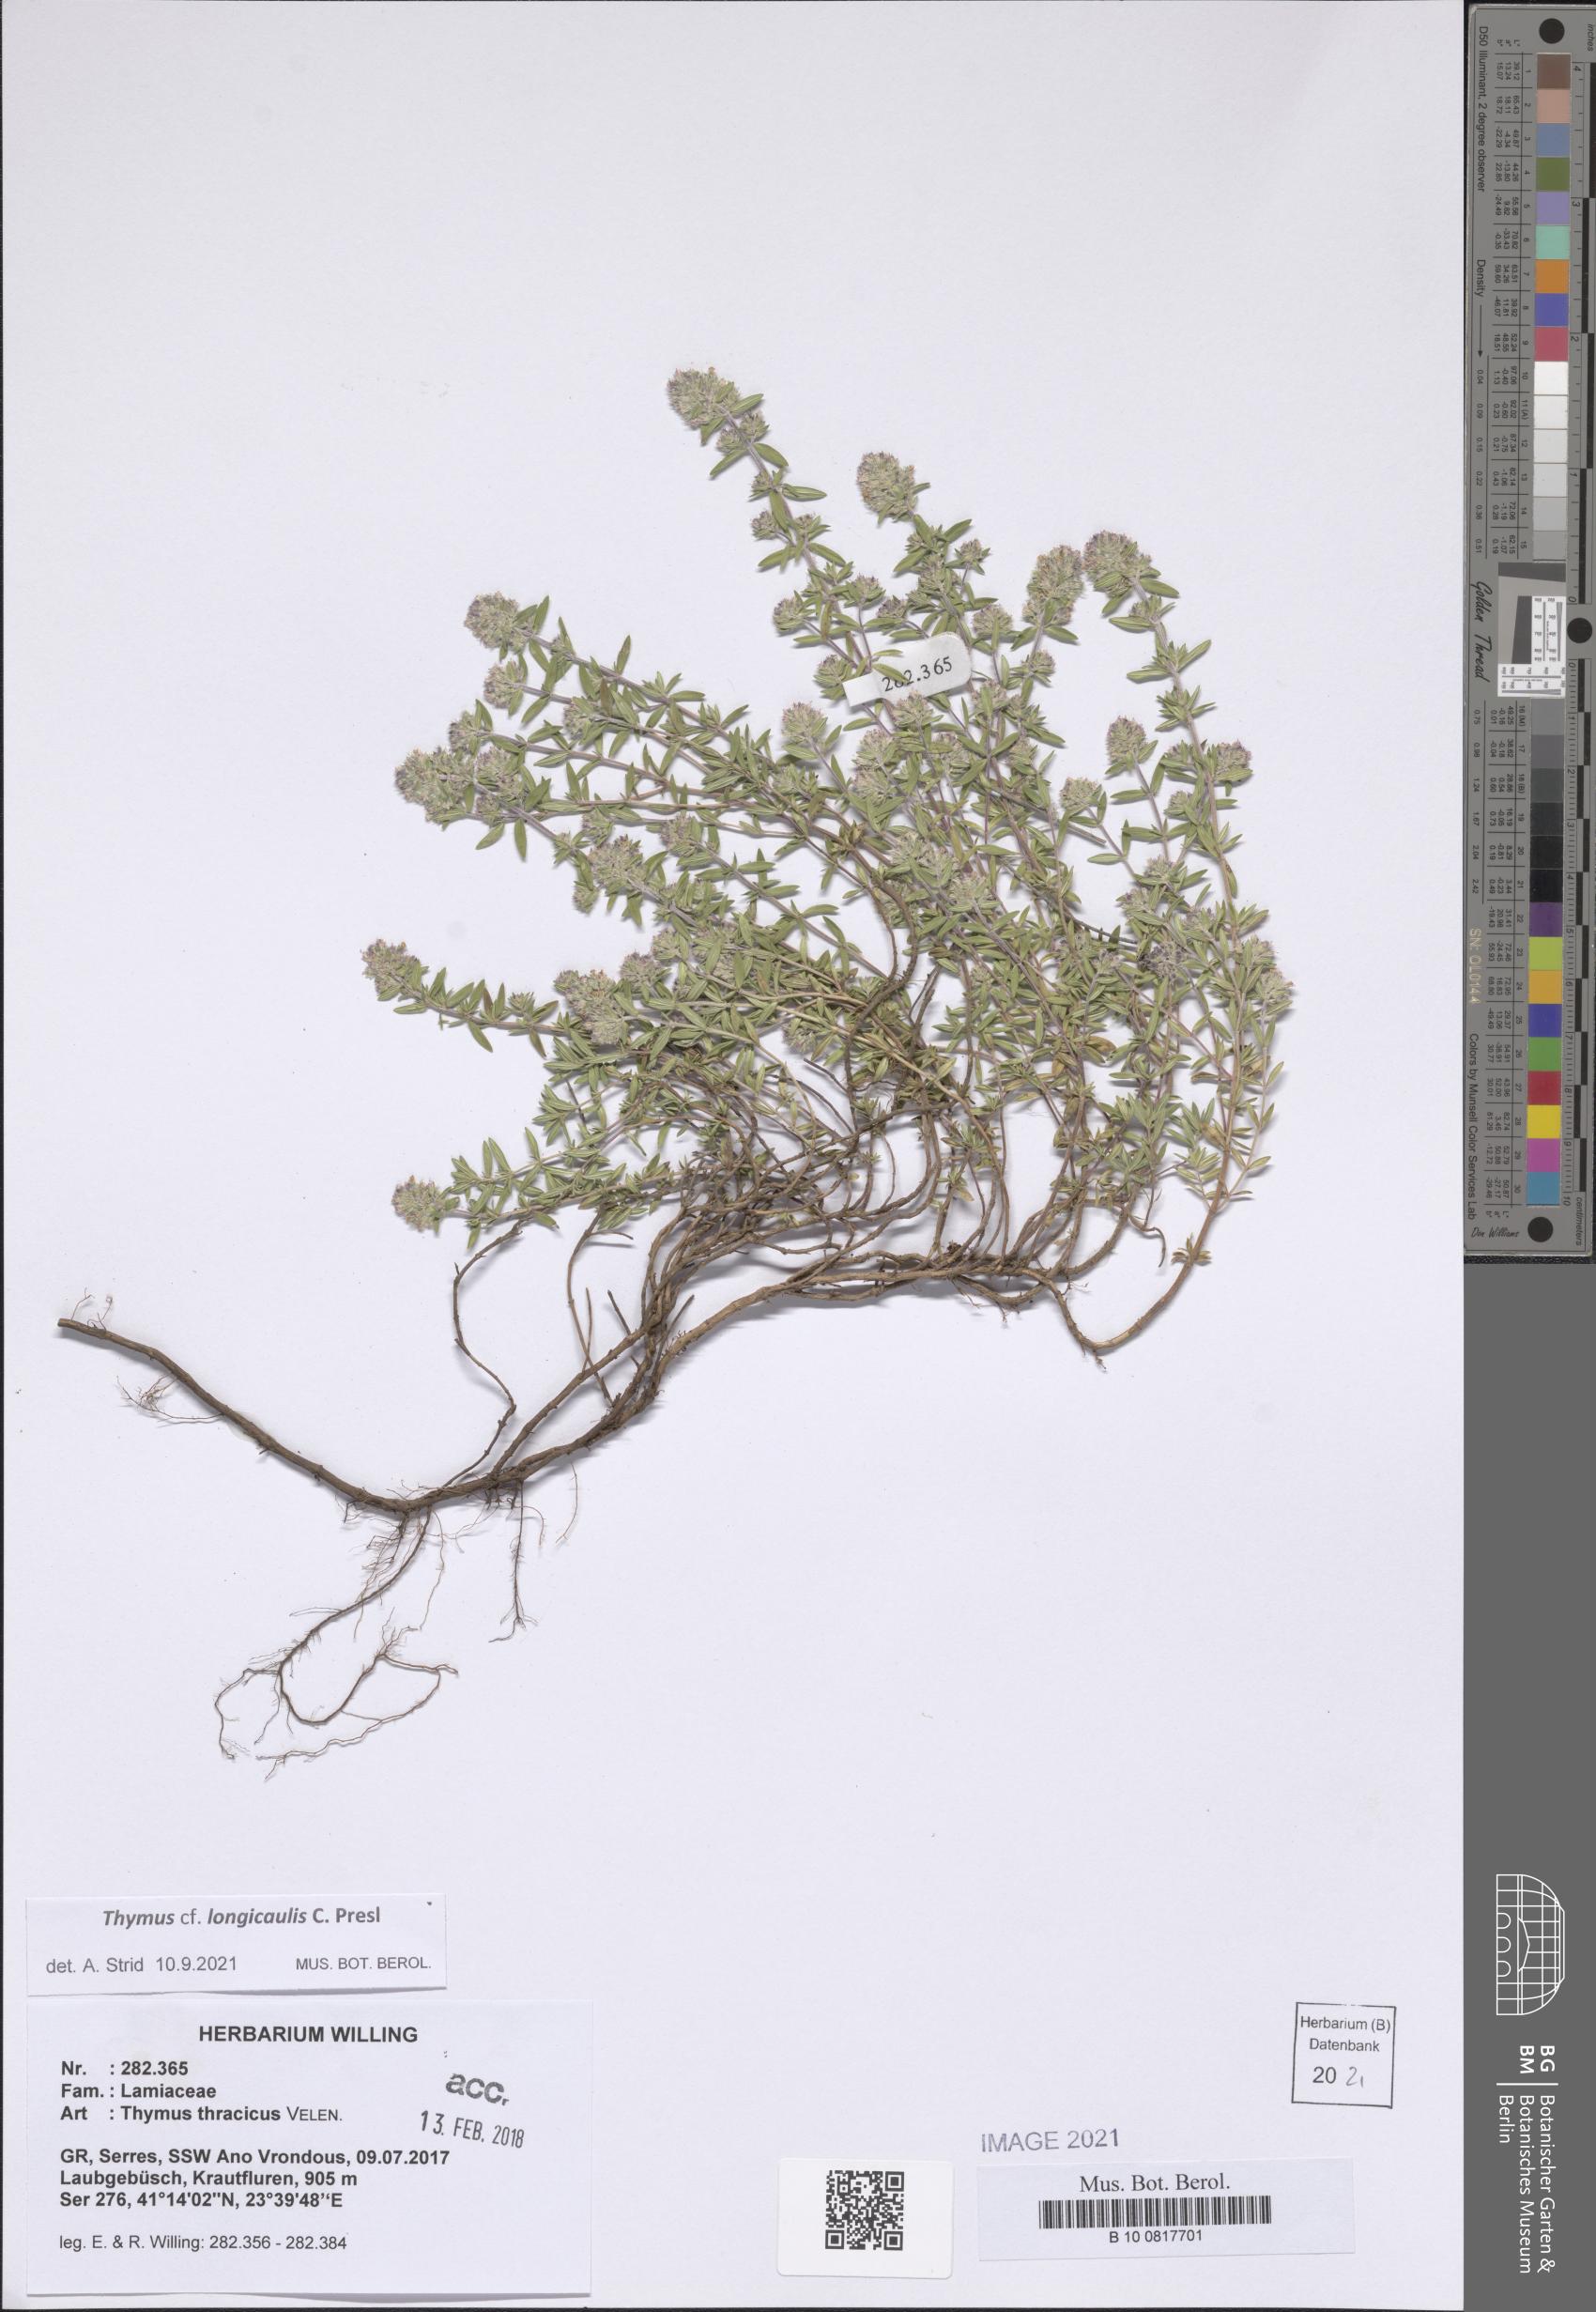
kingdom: Plantae
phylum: Tracheophyta
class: Magnoliopsida
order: Lamiales
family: Lamiaceae
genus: Thymus
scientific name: Thymus longicaulis
